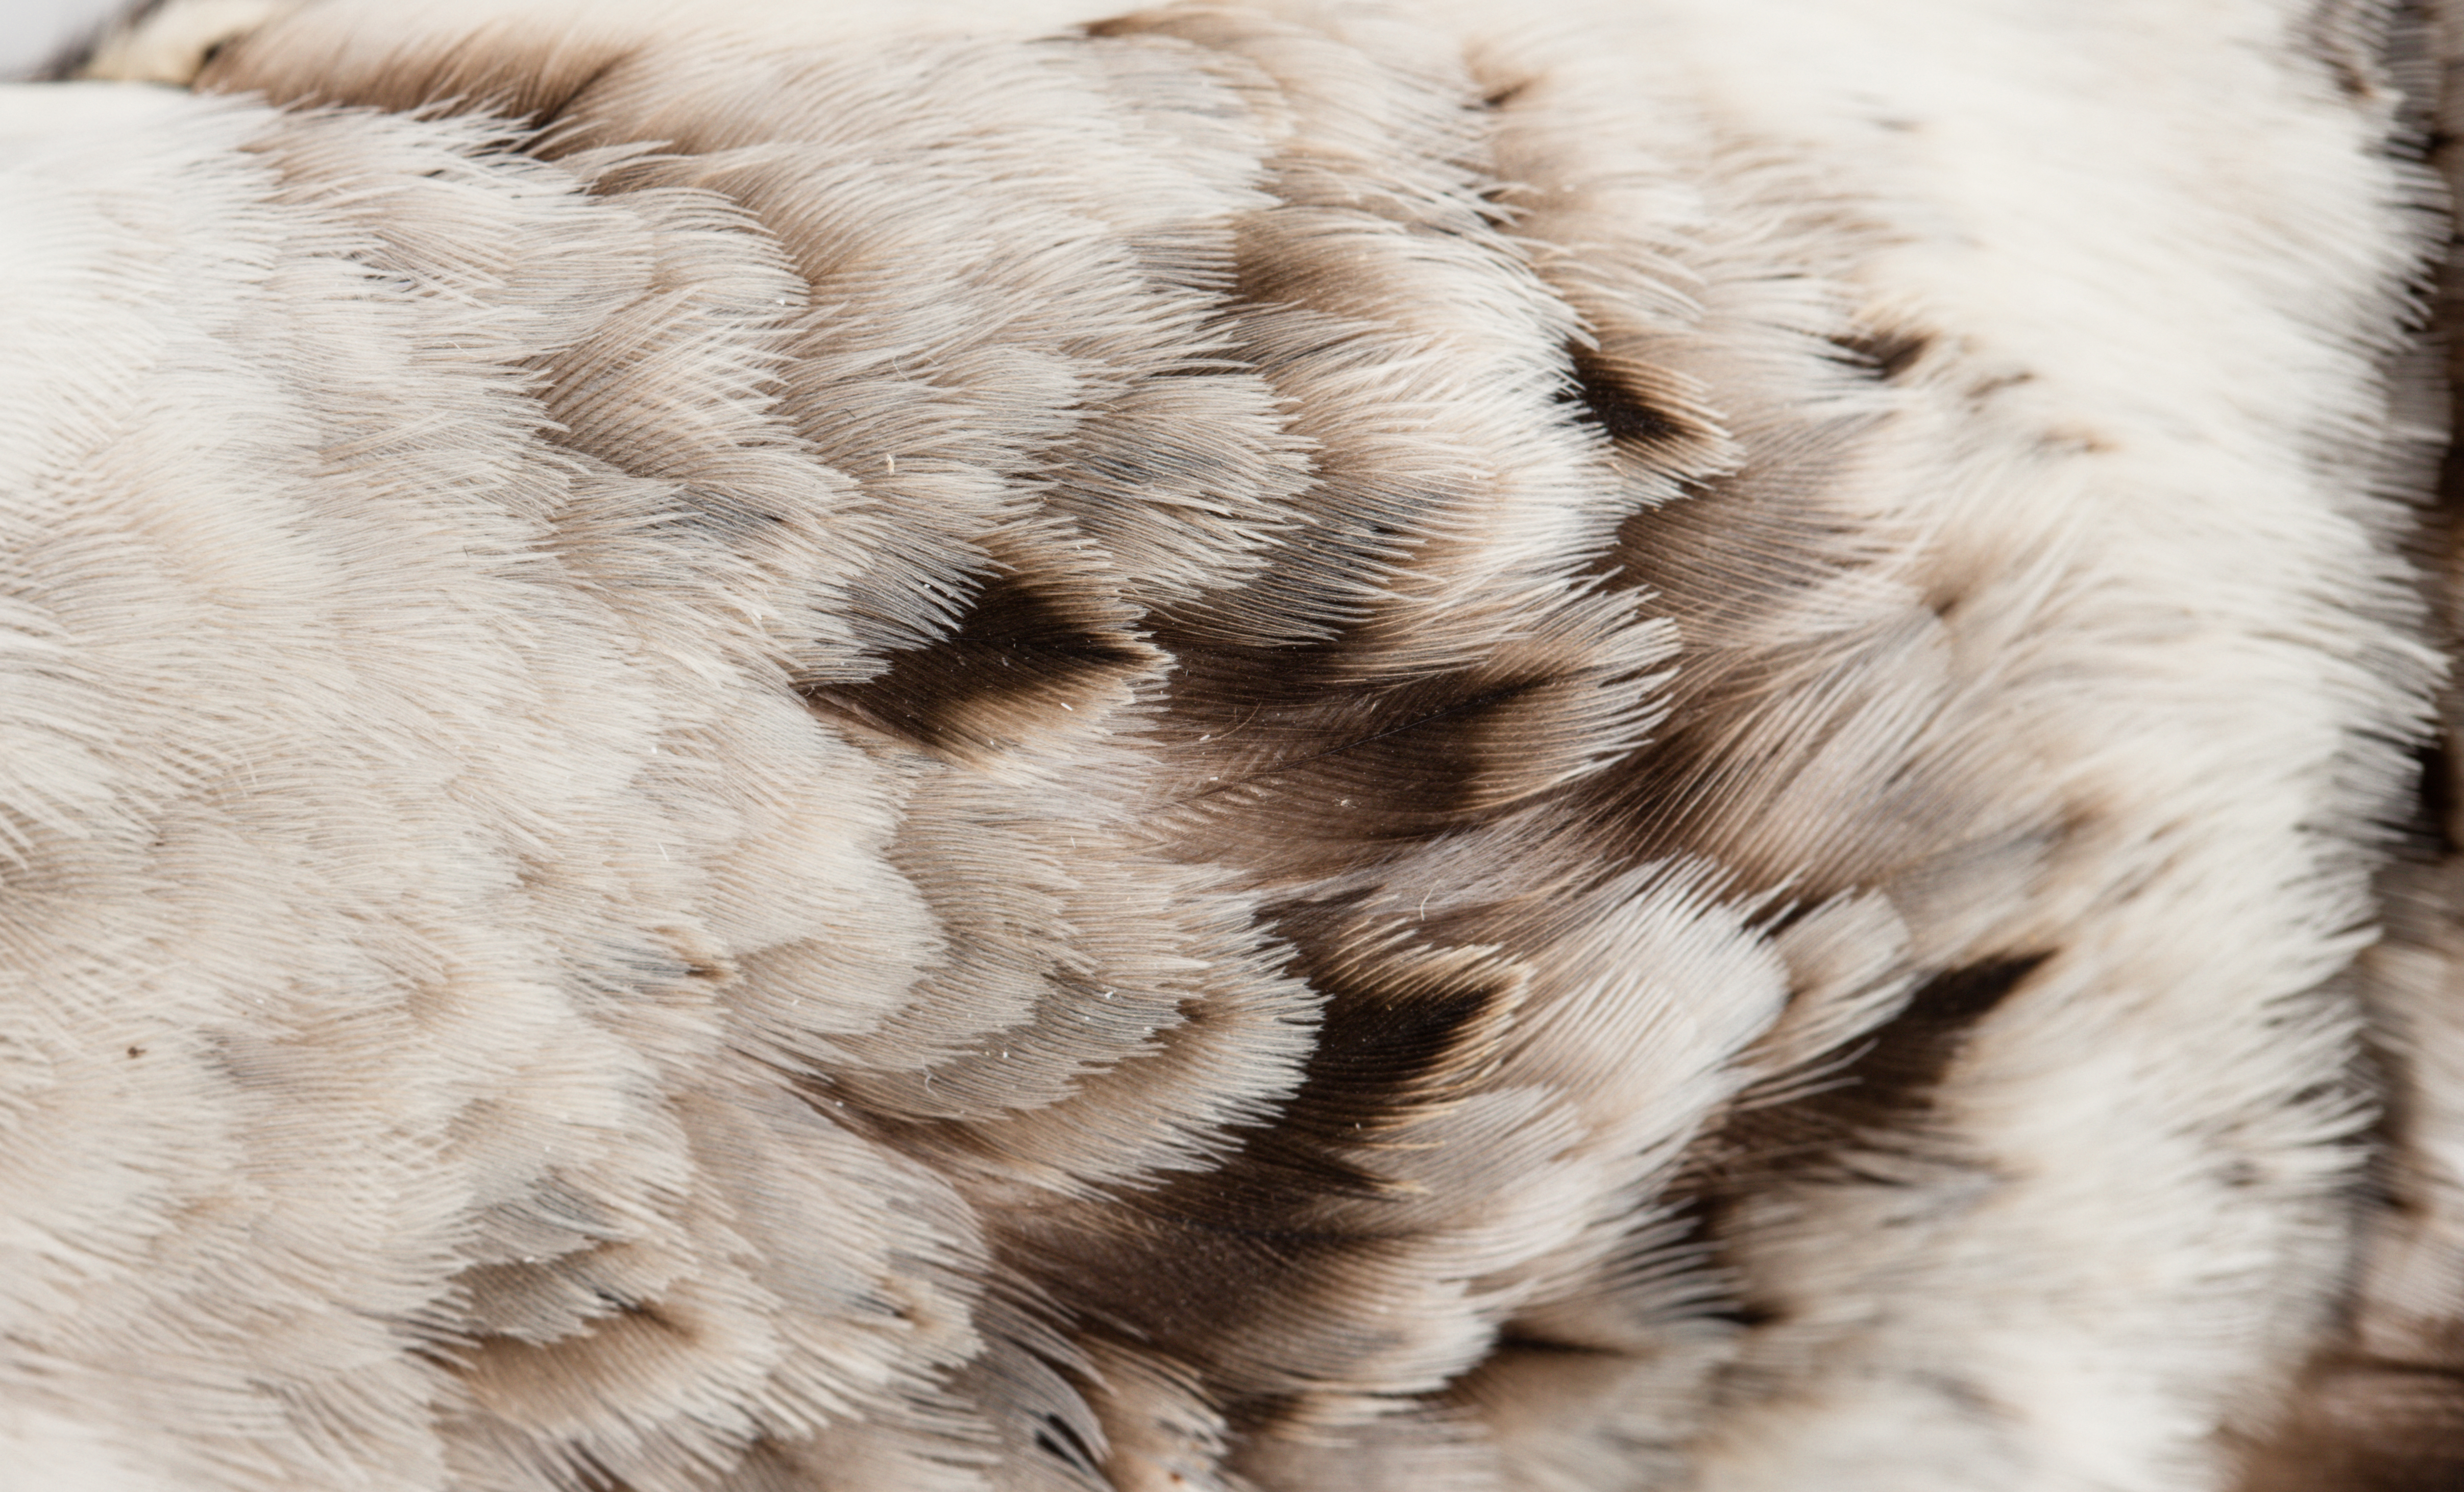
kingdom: Animalia
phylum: Chordata
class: Aves
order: Charadriiformes
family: Charadriidae
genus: Pluvialis
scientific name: Pluvialis squatarola
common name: Grey plover
